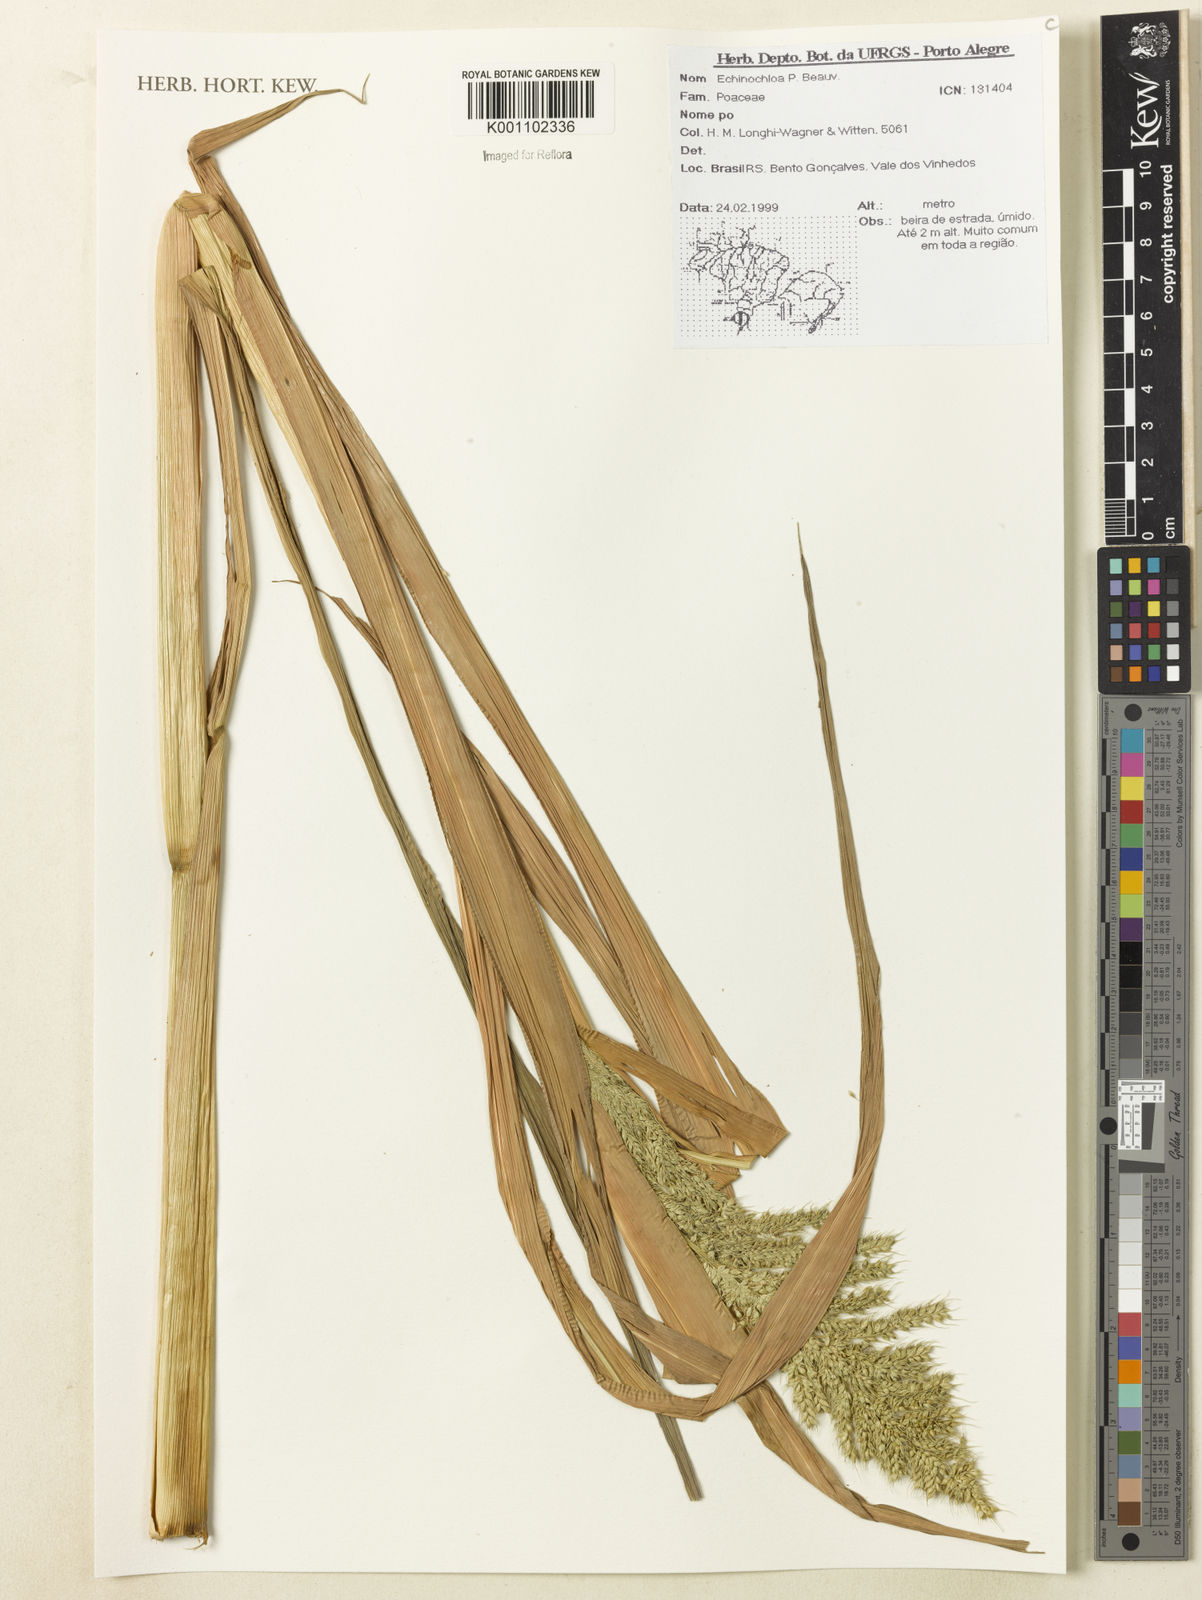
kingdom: Plantae
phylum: Tracheophyta
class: Liliopsida
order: Poales
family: Poaceae
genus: Echinochloa
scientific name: Echinochloa
